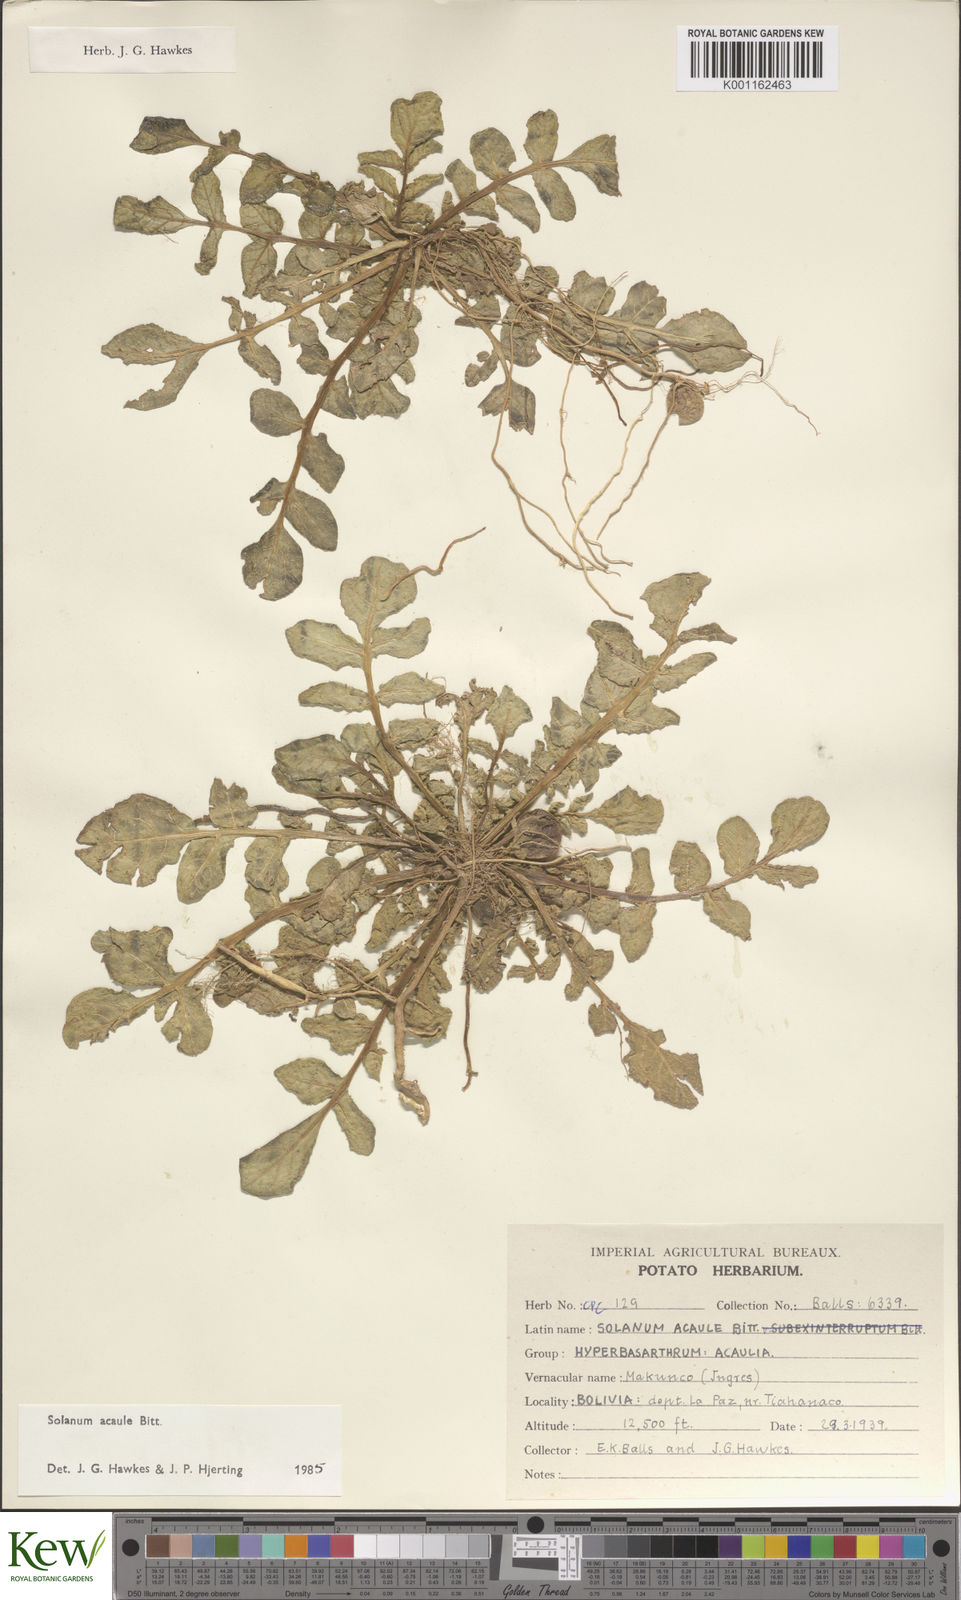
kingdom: Plantae
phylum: Tracheophyta
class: Magnoliopsida
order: Solanales
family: Solanaceae
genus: Solanum
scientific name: Solanum acaule
